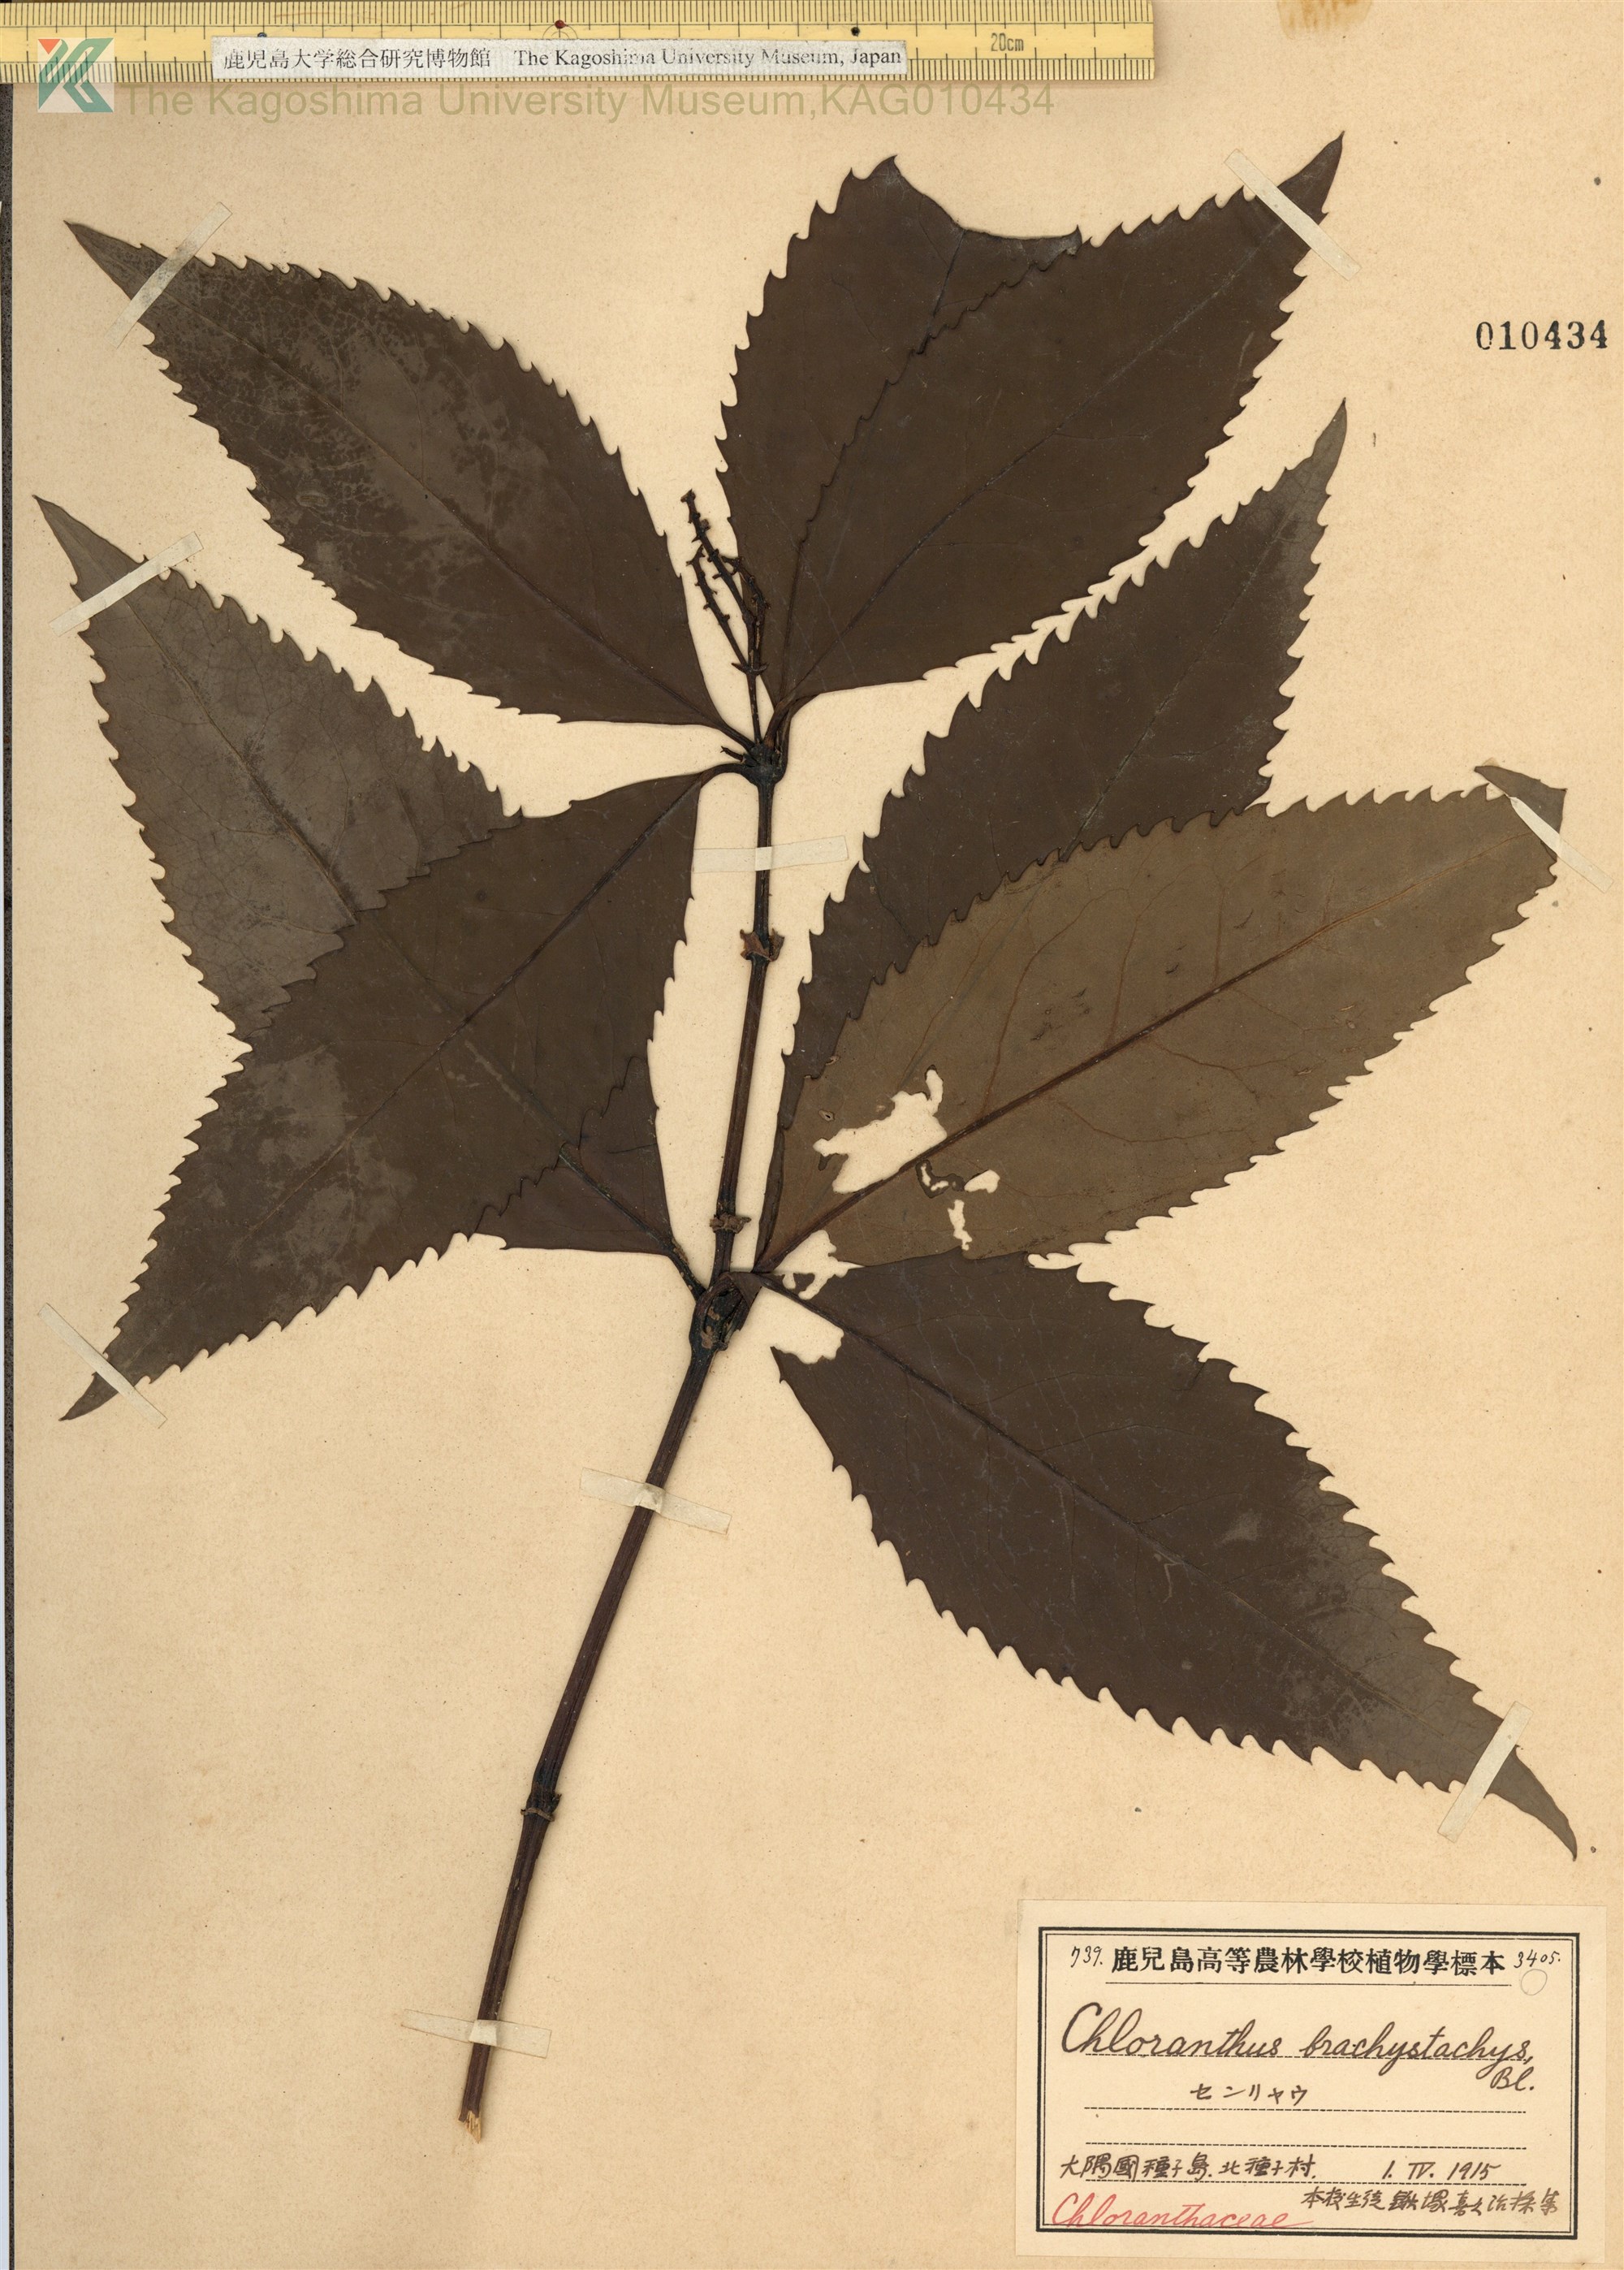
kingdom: Plantae
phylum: Tracheophyta
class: Magnoliopsida
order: Chloranthales
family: Chloranthaceae
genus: Sarcandra
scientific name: Sarcandra glabra
